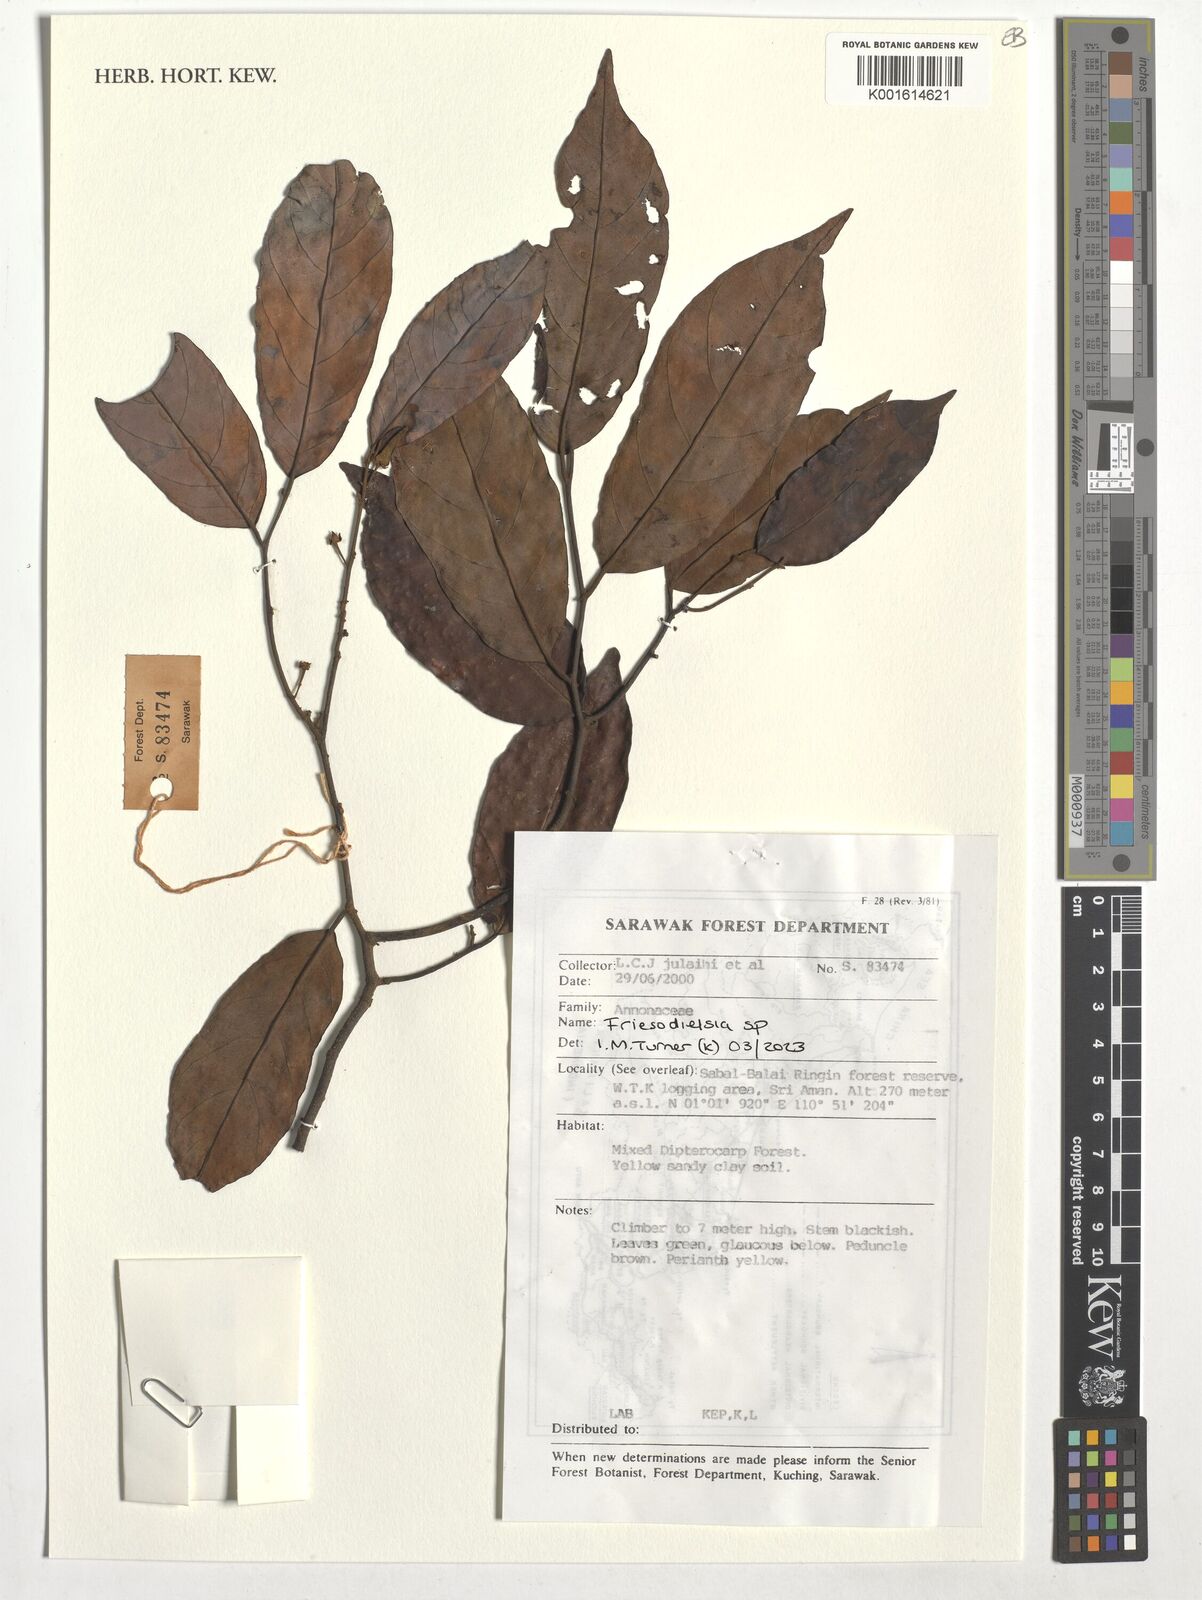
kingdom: Plantae
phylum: Tracheophyta
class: Magnoliopsida
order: Magnoliales
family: Annonaceae
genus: Friesodielsia
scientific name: Friesodielsia
